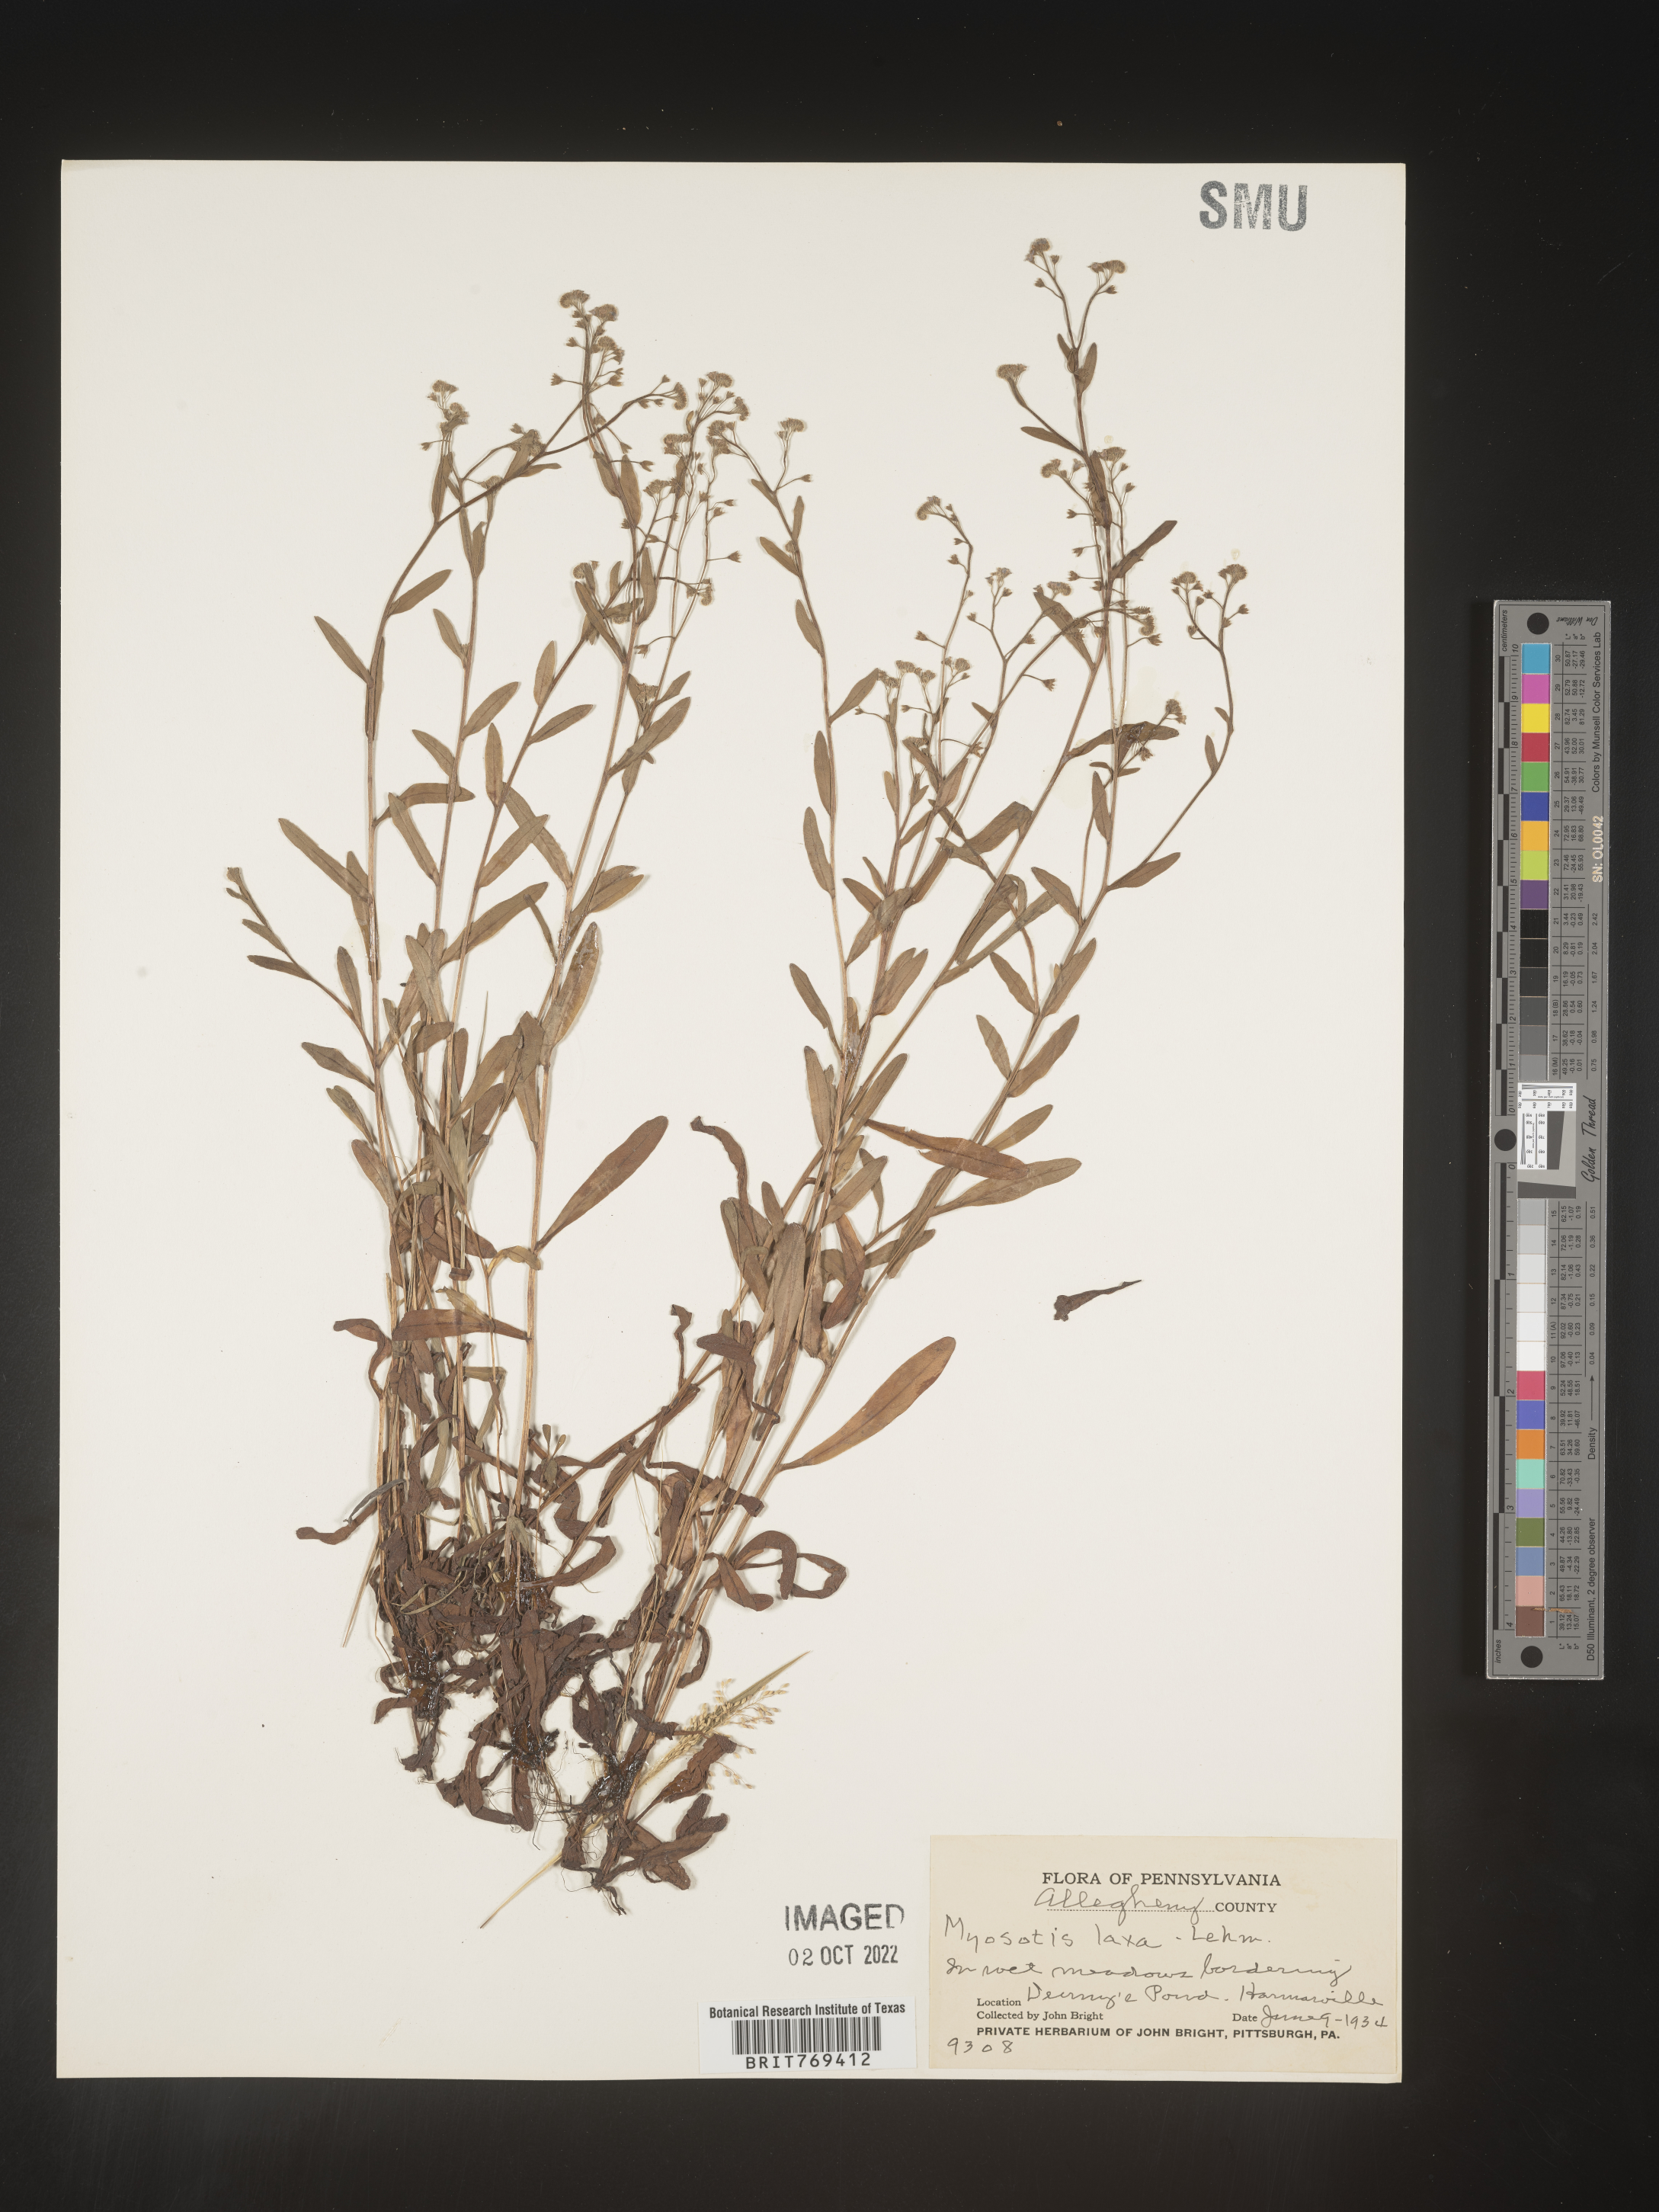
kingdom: Plantae
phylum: Tracheophyta
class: Magnoliopsida
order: Boraginales
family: Boraginaceae
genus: Myosotis
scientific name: Myosotis
